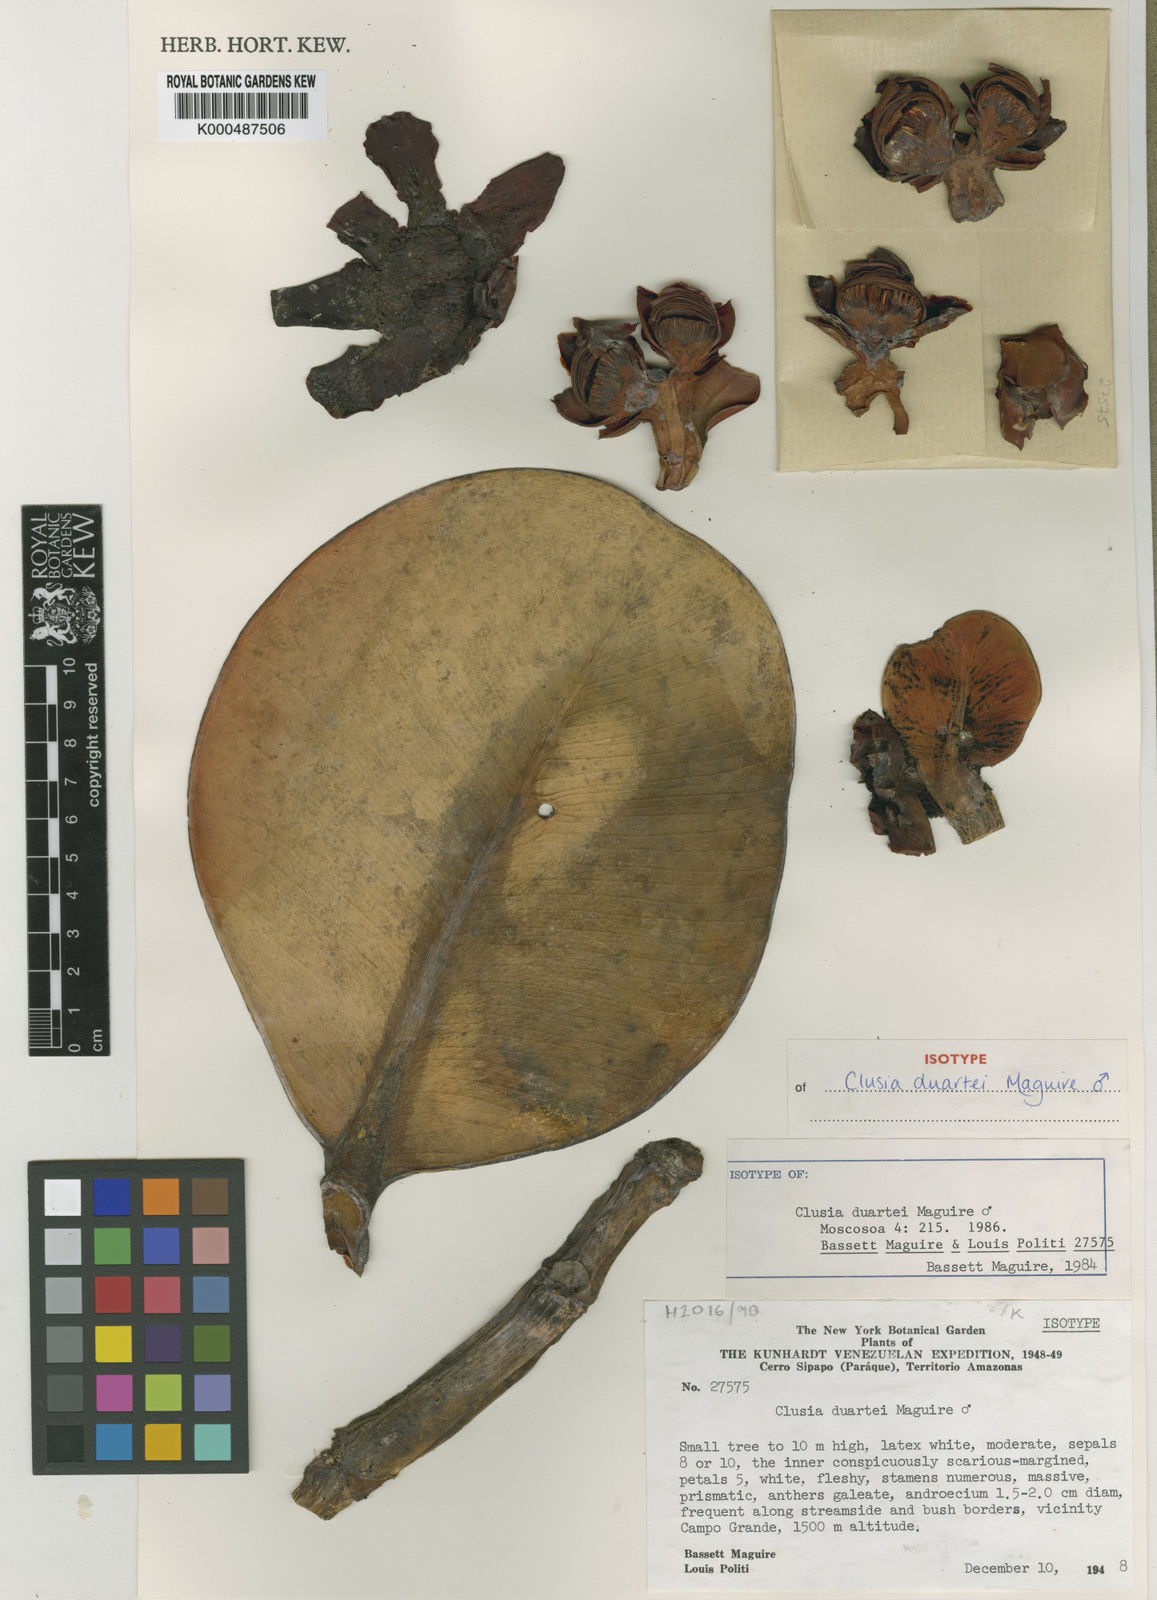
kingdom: Plantae
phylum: Tracheophyta
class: Magnoliopsida
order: Malpighiales
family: Clusiaceae
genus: Clusia
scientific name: Clusia duartei
